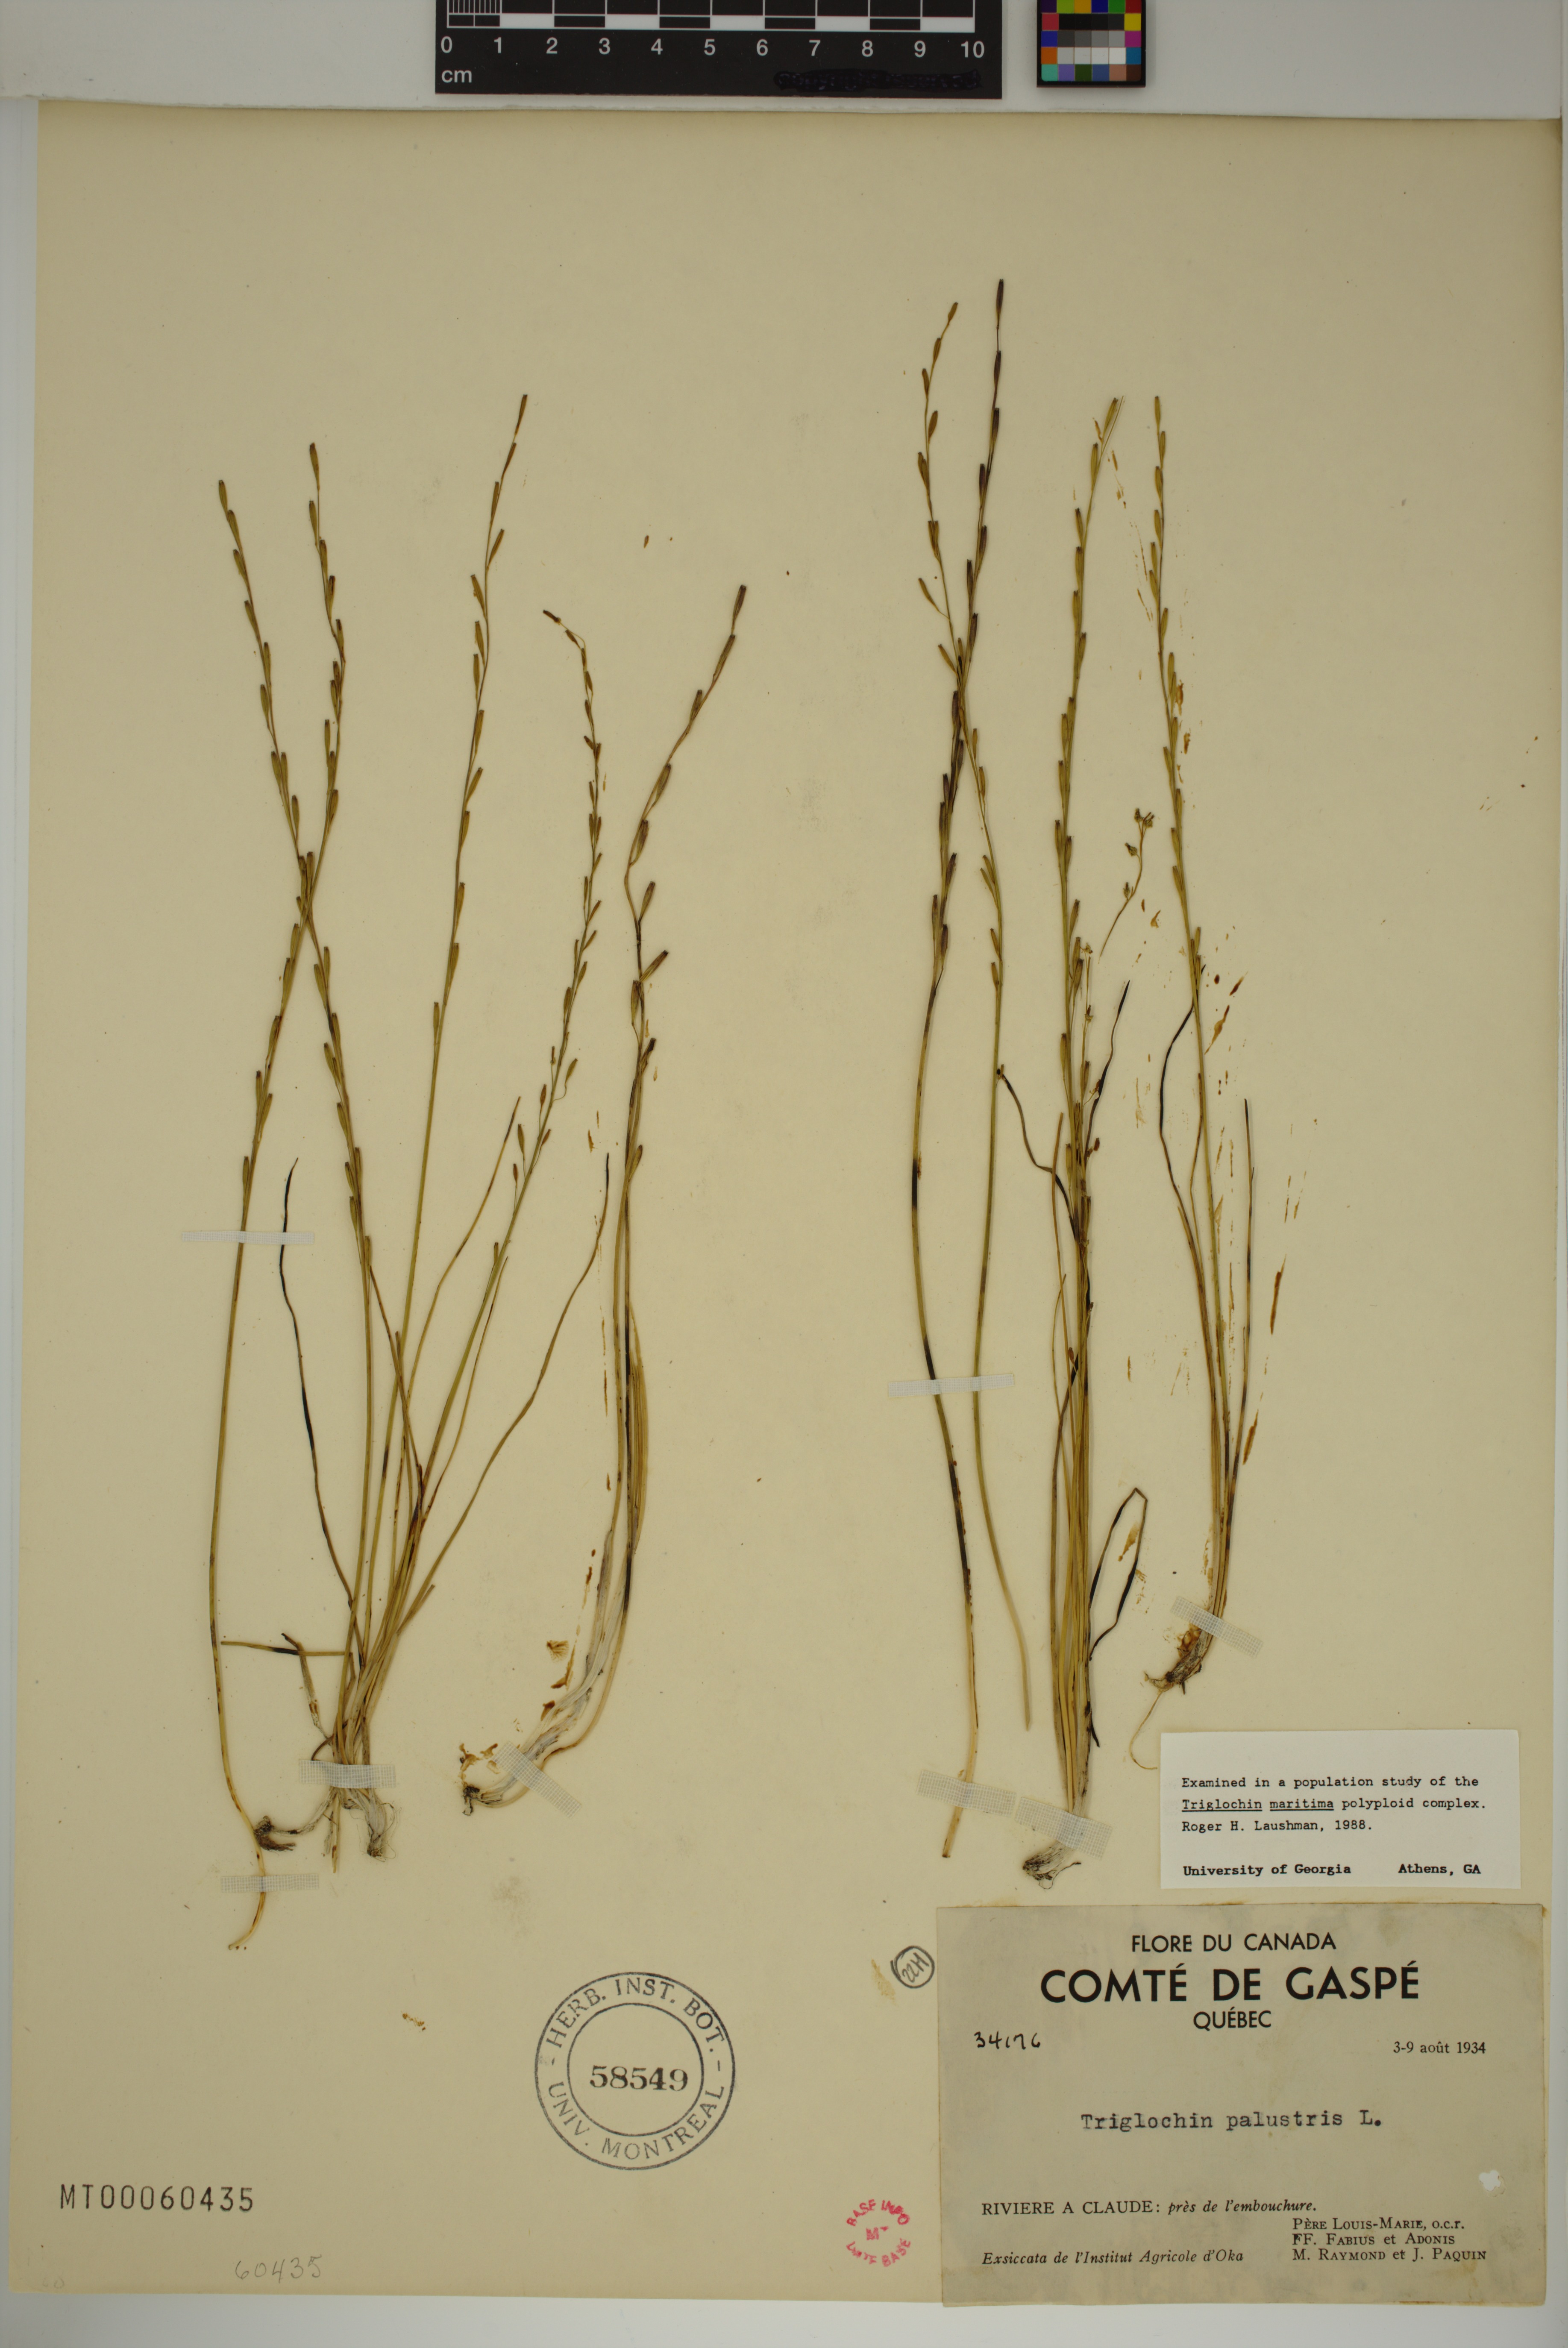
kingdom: Plantae
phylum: Tracheophyta
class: Liliopsida
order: Alismatales
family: Juncaginaceae
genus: Triglochin
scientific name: Triglochin palustris
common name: Marsh arrowgrass
